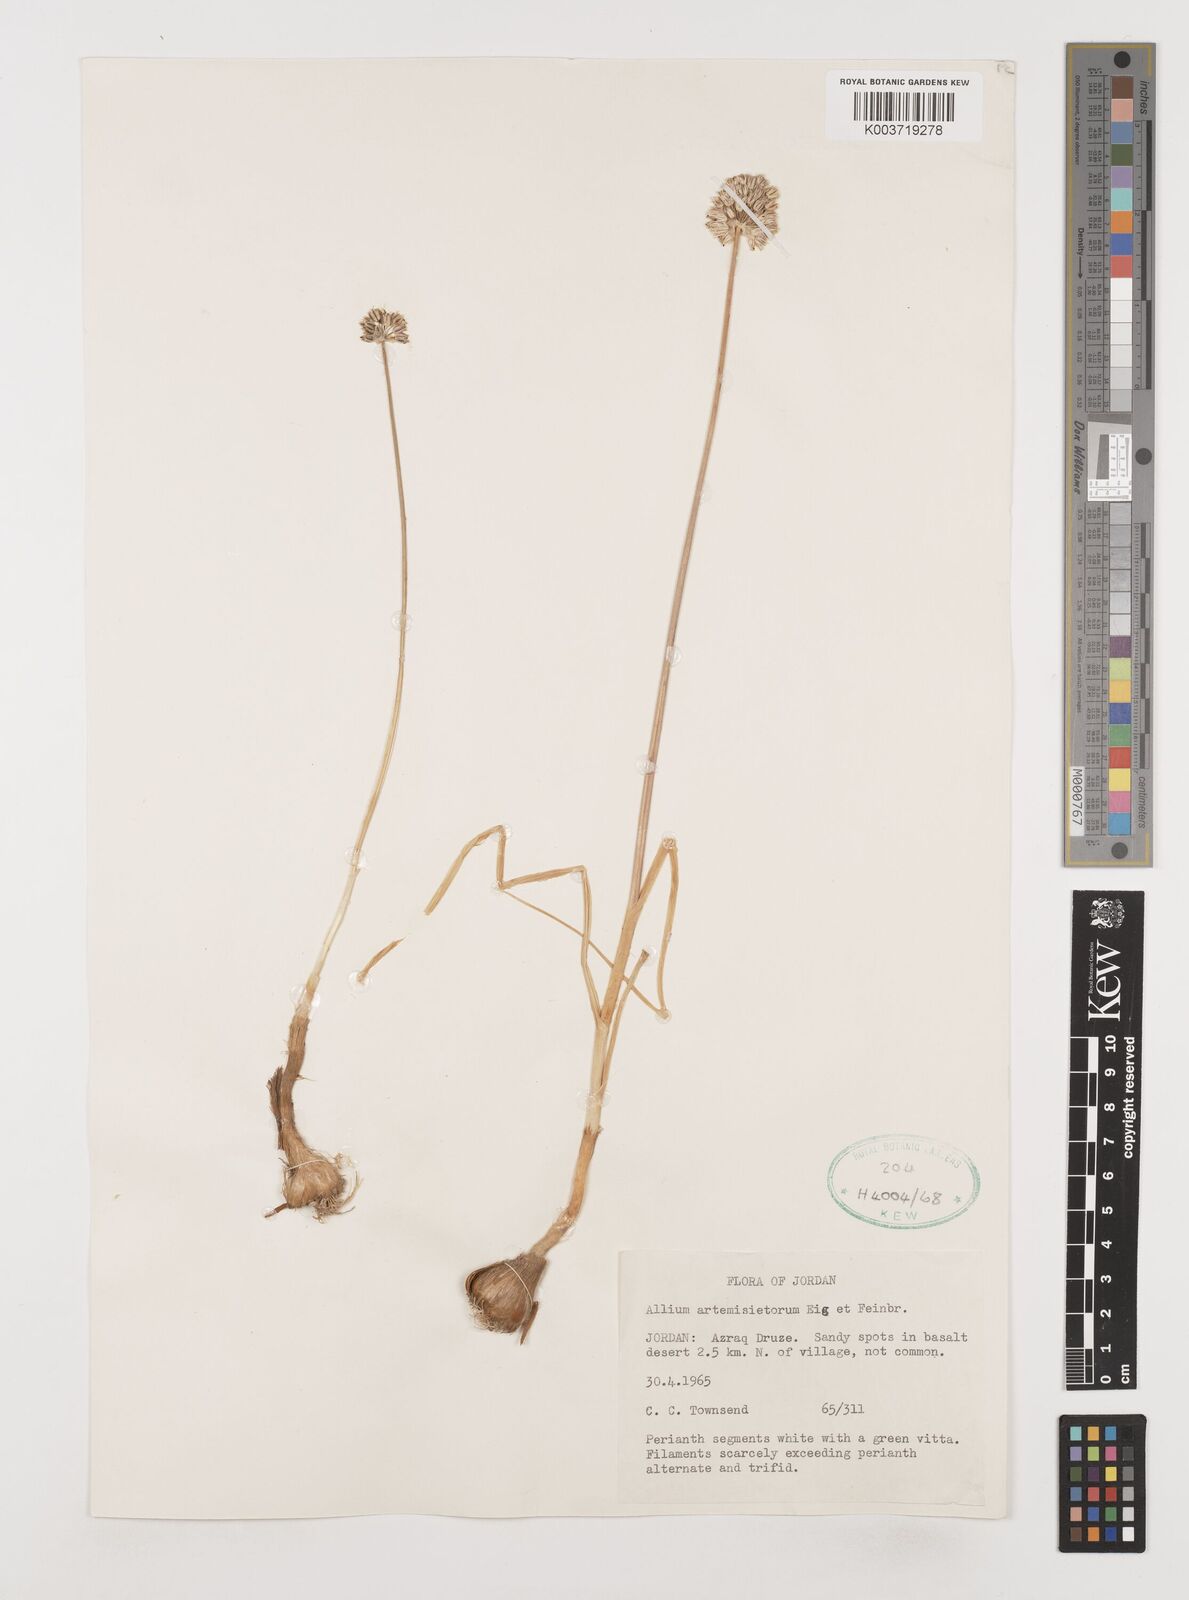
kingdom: Plantae
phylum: Tracheophyta
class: Liliopsida
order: Asparagales
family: Amaryllidaceae
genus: Allium
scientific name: Allium artemisietorum
